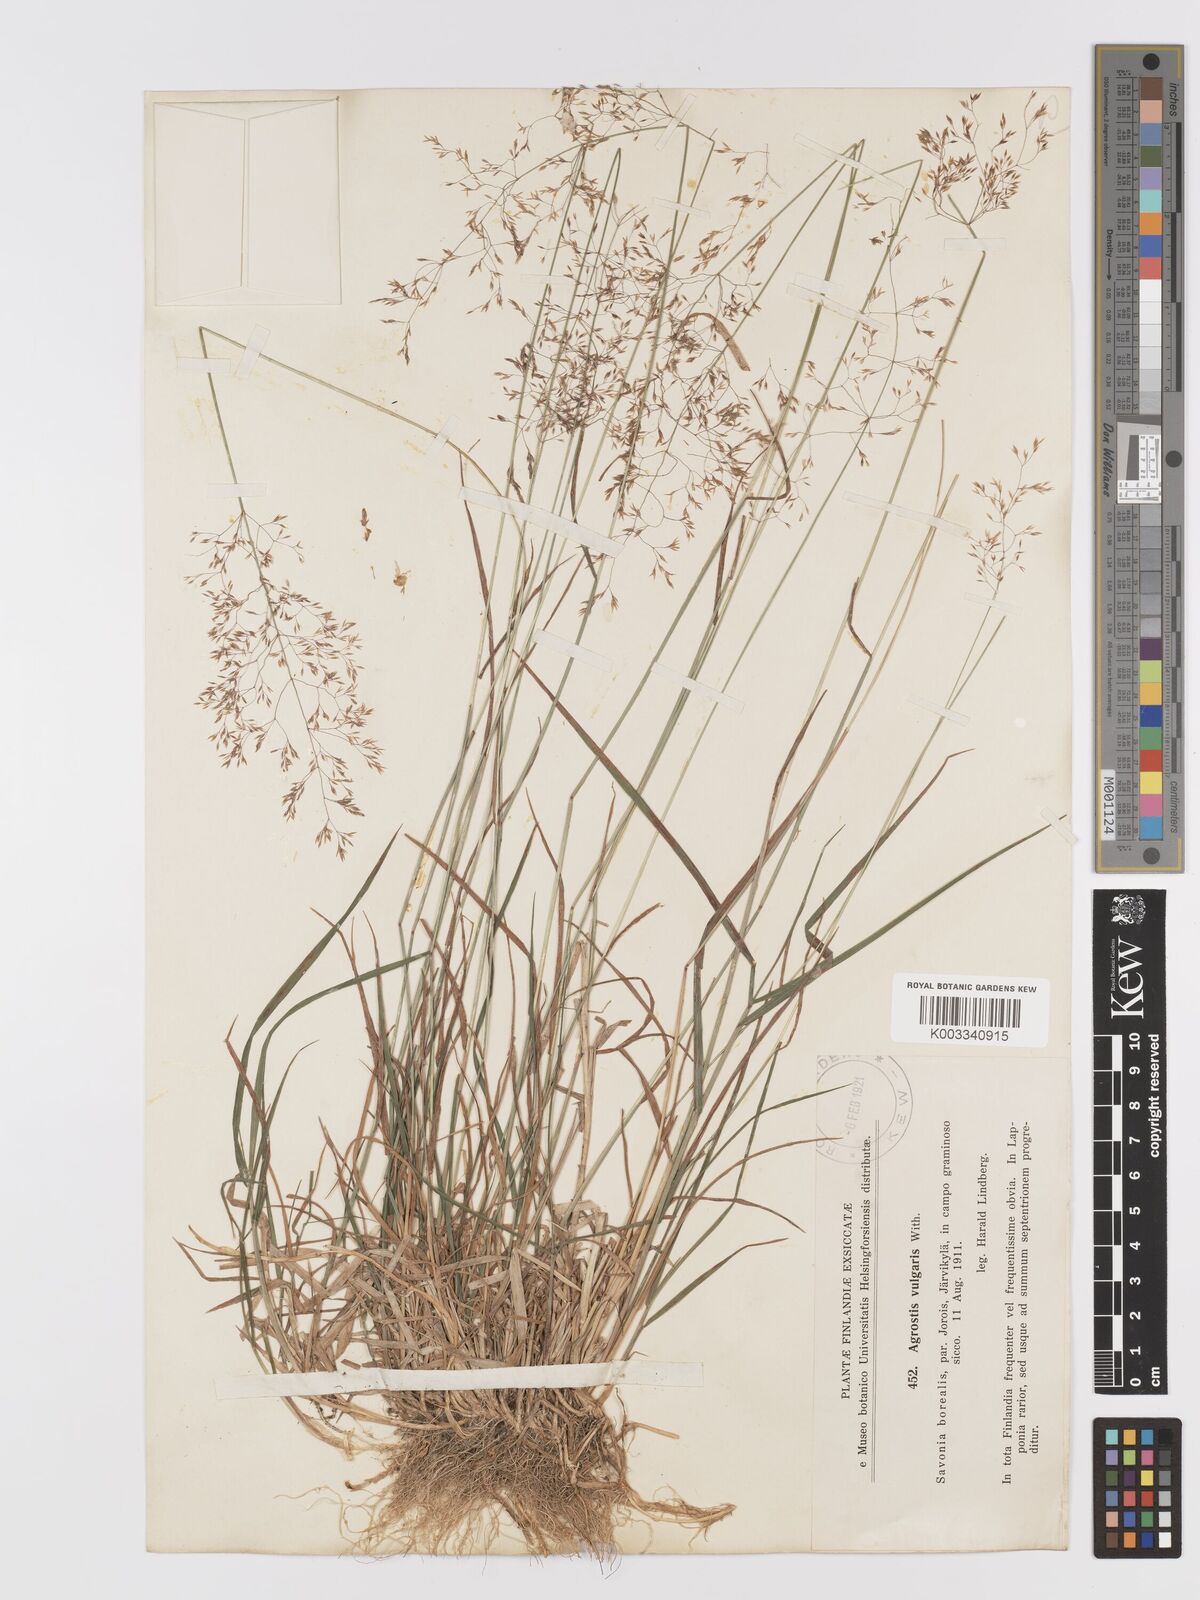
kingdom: Plantae
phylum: Tracheophyta
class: Liliopsida
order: Poales
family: Poaceae
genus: Agrostis
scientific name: Agrostis capillaris
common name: Colonial bentgrass
